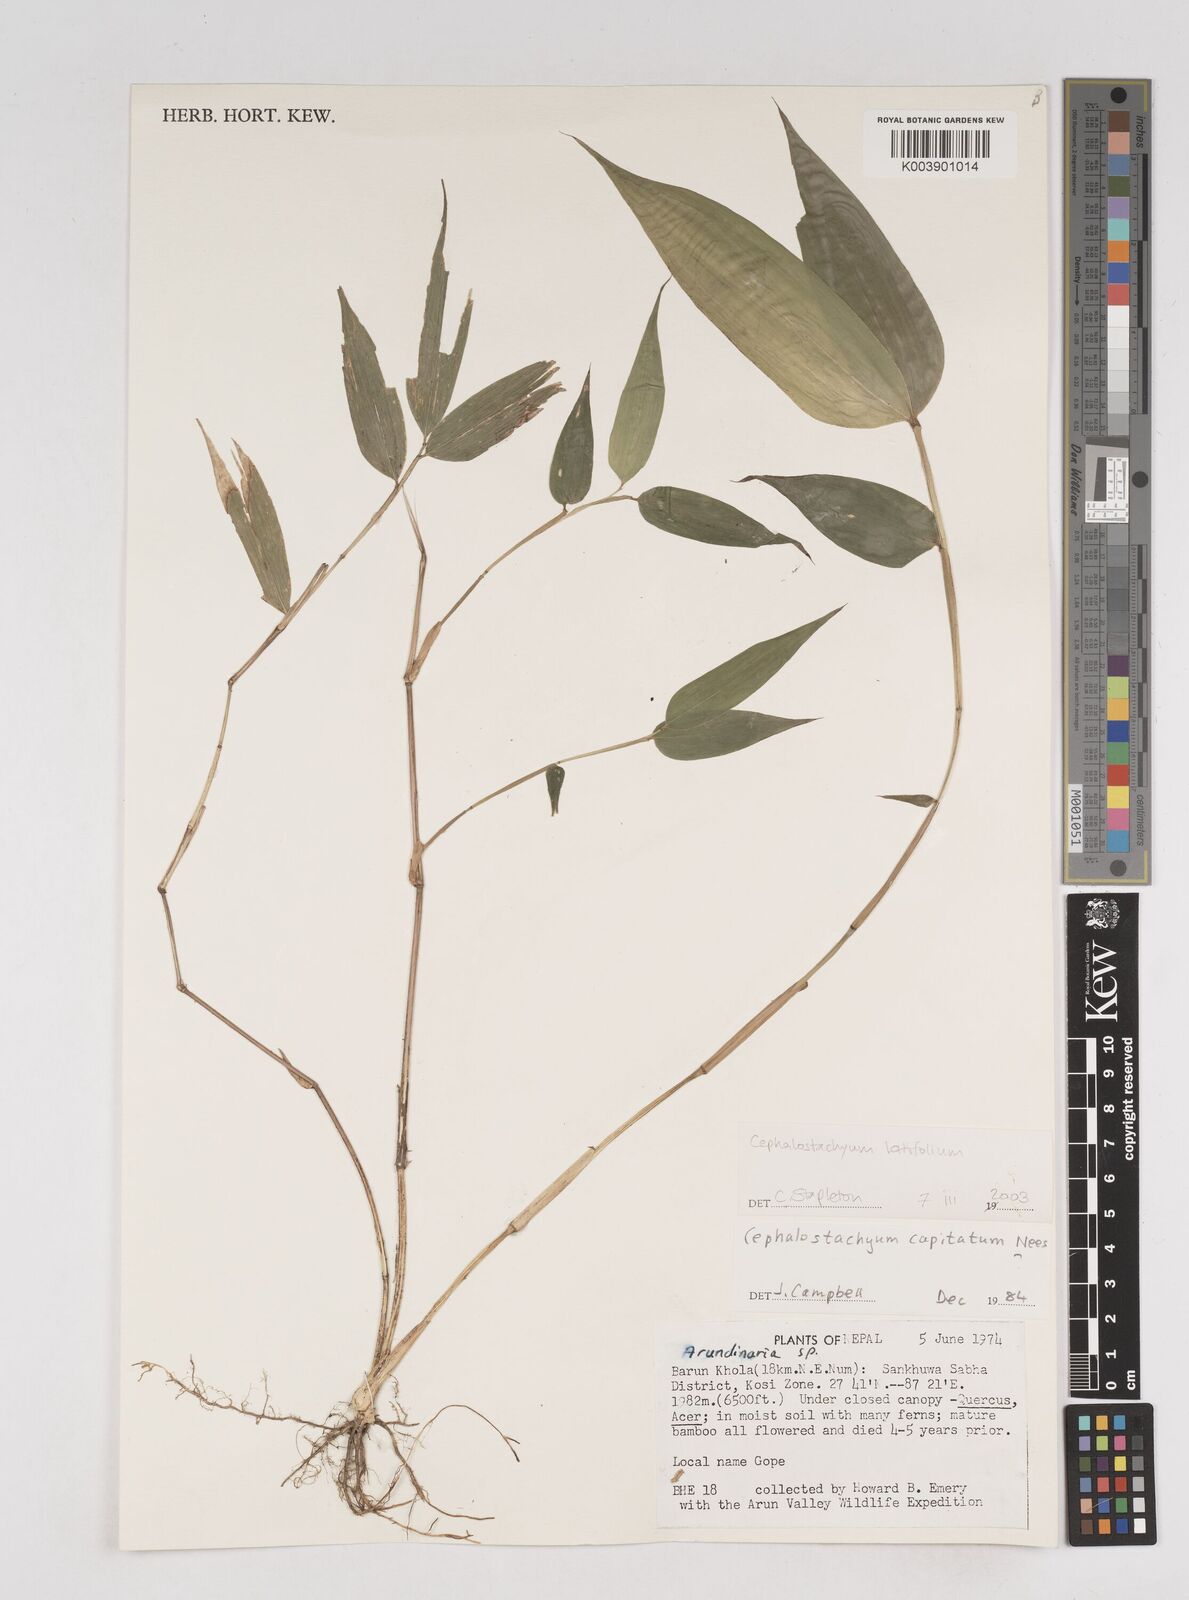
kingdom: Plantae
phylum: Tracheophyta
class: Liliopsida
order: Poales
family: Poaceae
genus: Cephalostachyum
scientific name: Cephalostachyum latifolium
